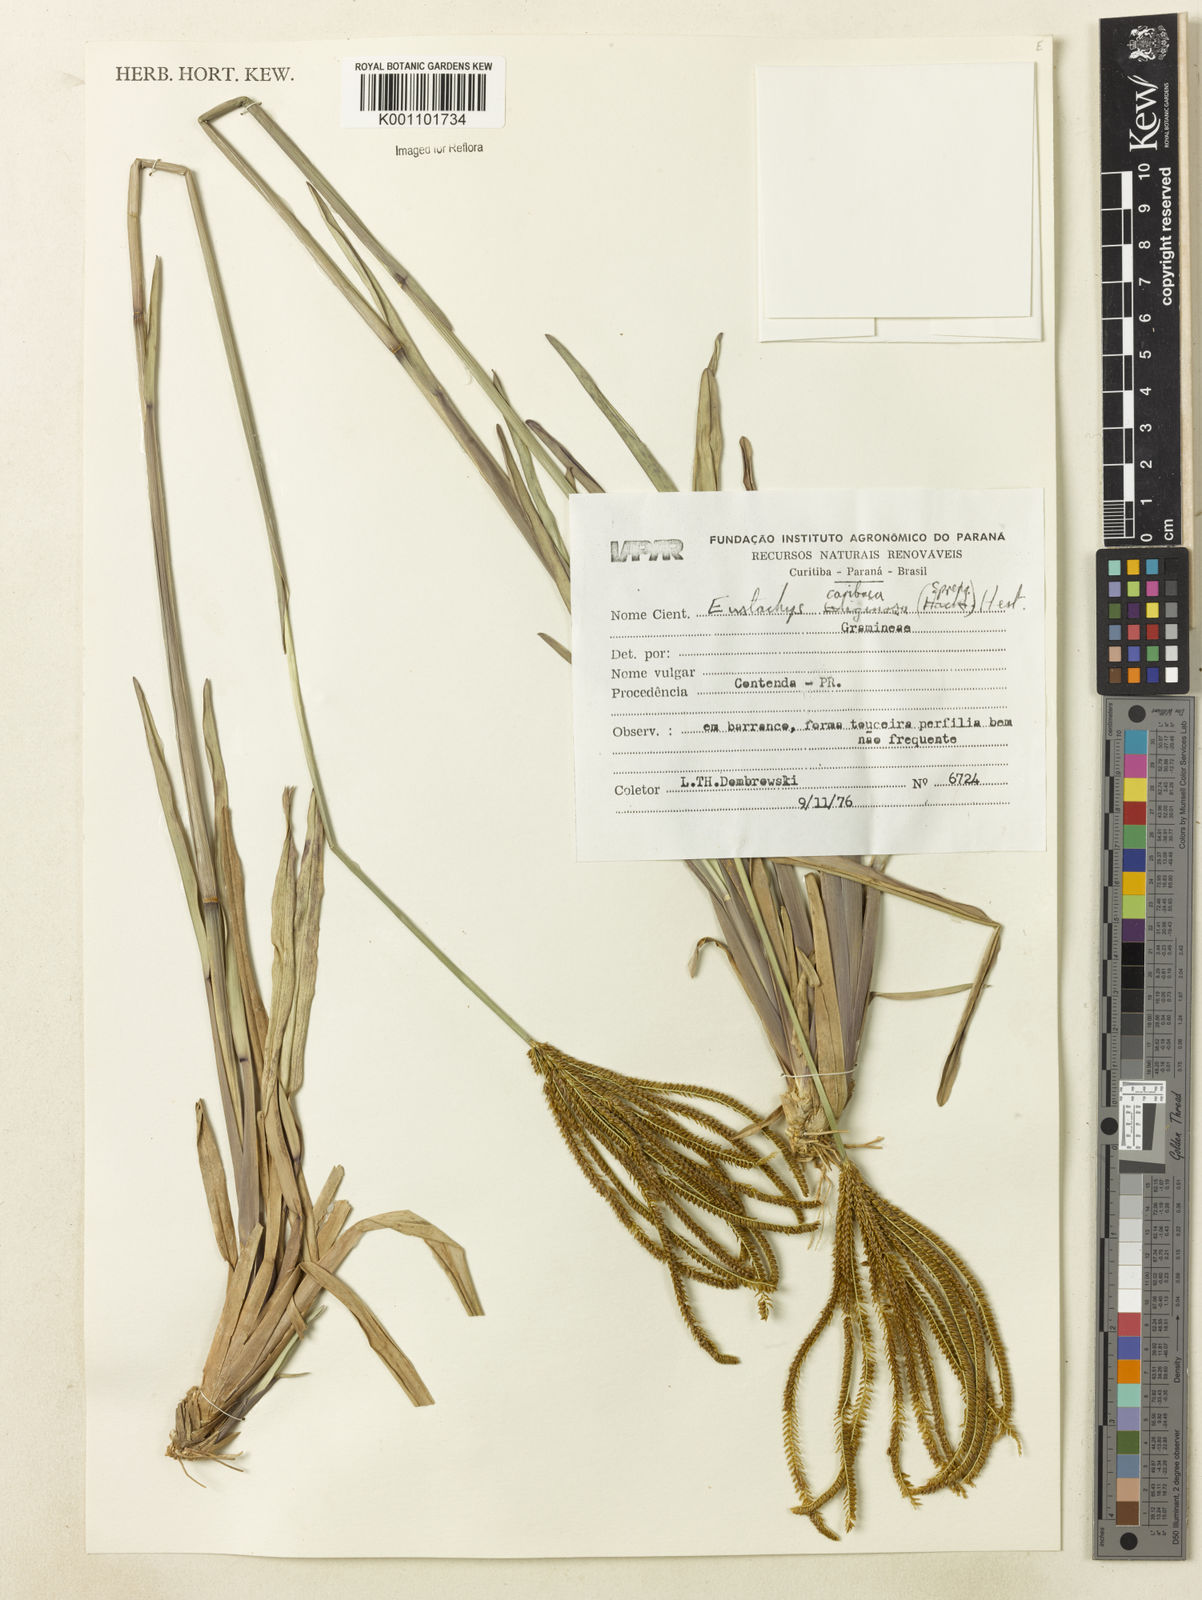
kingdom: Plantae
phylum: Tracheophyta
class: Liliopsida
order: Poales
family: Poaceae
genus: Eustachys
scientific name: Eustachys bahiensis
